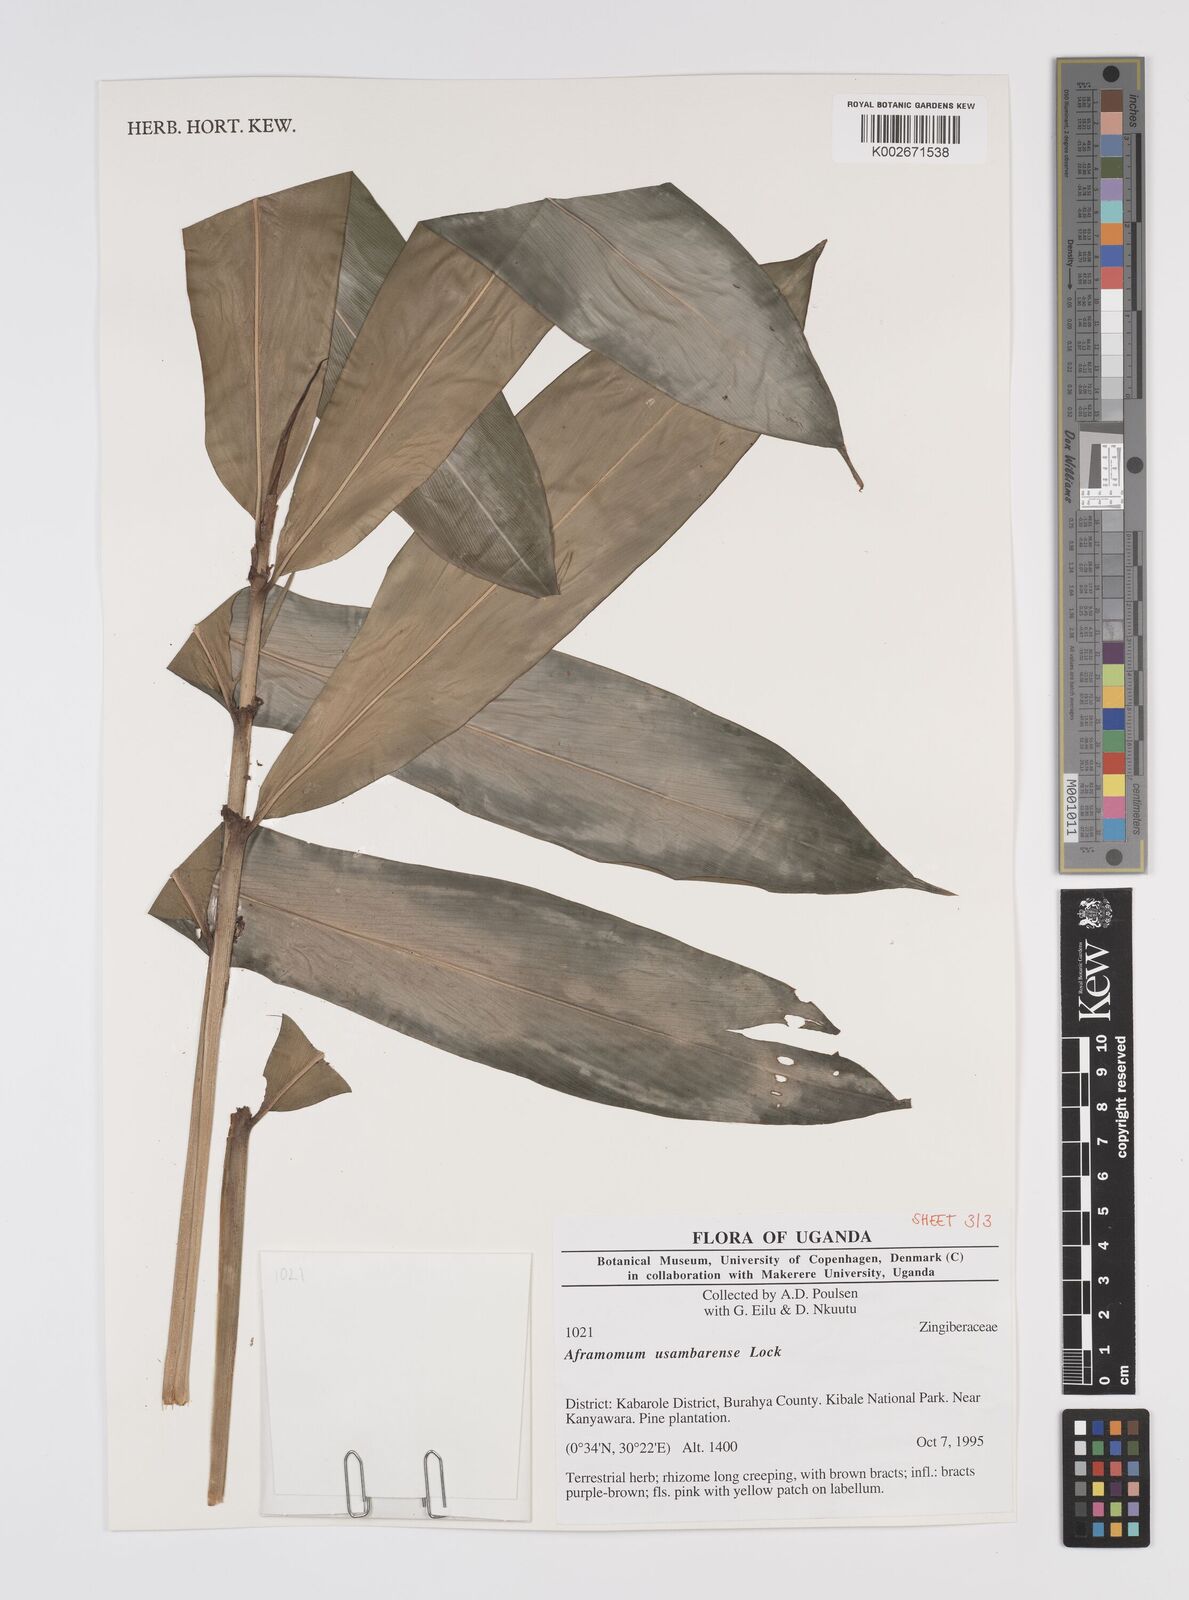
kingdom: Plantae
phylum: Tracheophyta
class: Liliopsida
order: Zingiberales
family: Zingiberaceae
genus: Aframomum
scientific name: Aframomum corrorima
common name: Ethiopian cardamom
